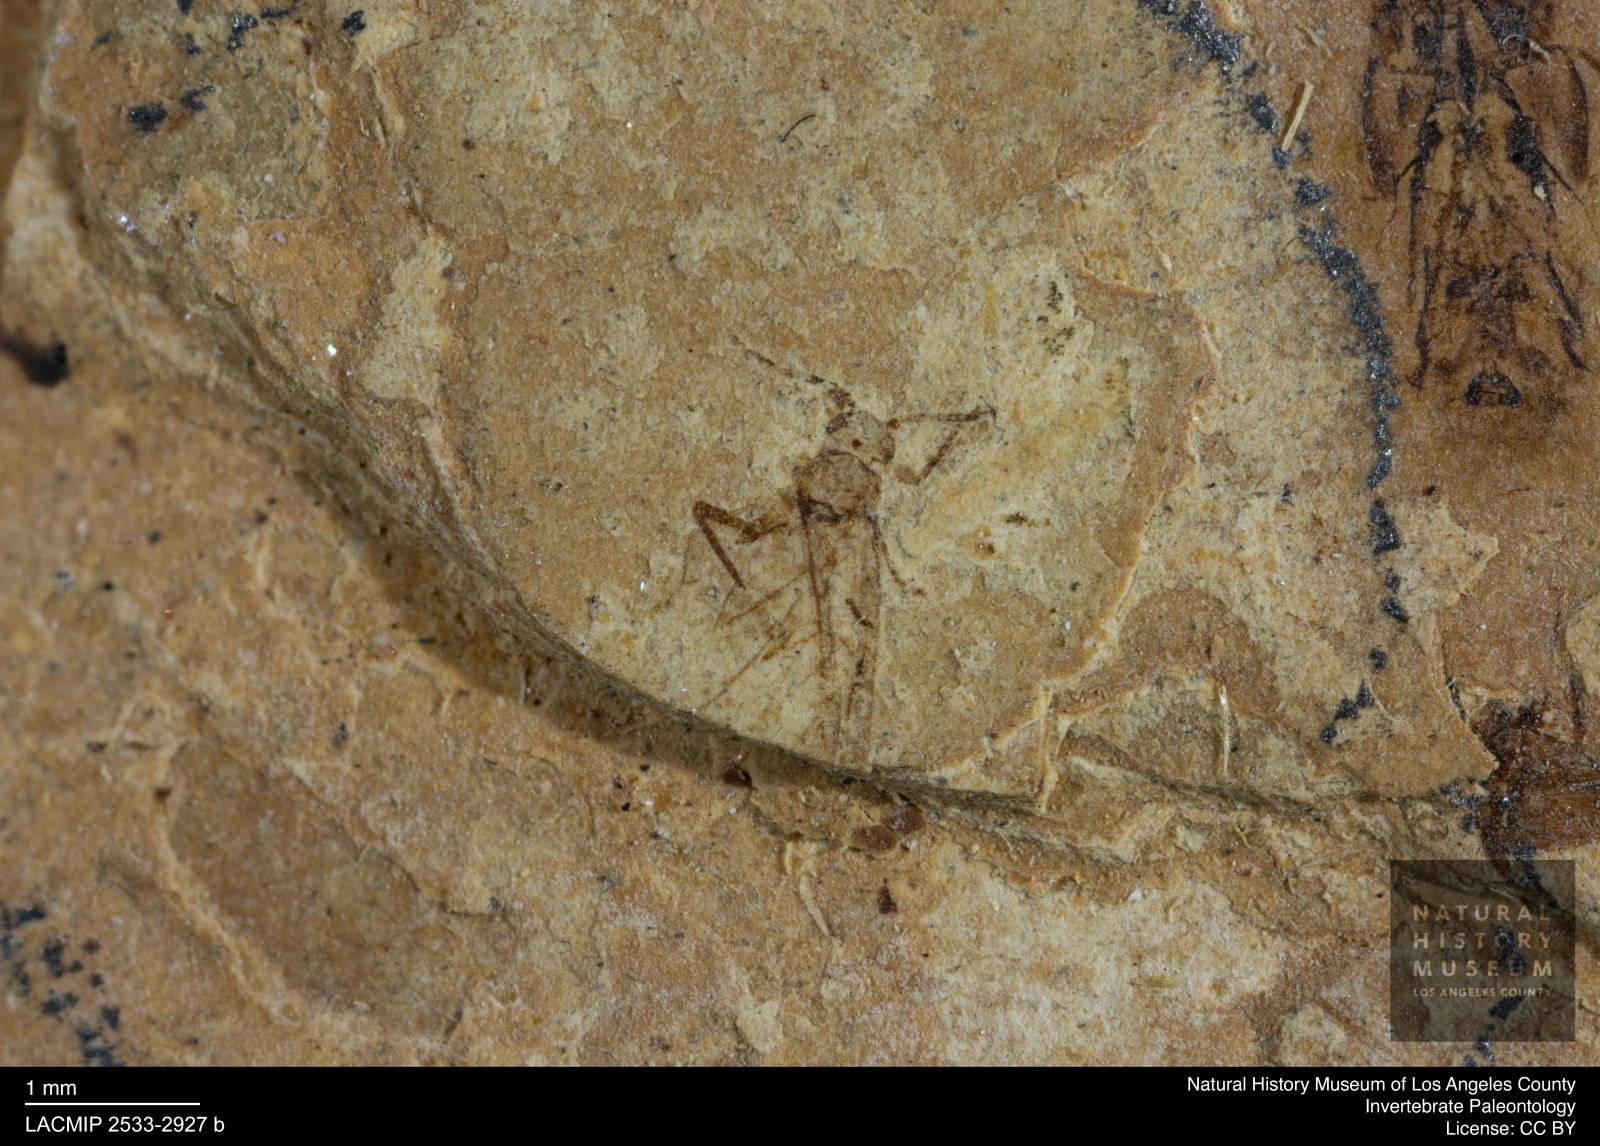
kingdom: Animalia
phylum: Arthropoda
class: Insecta
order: Hemiptera
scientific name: Hemiptera
